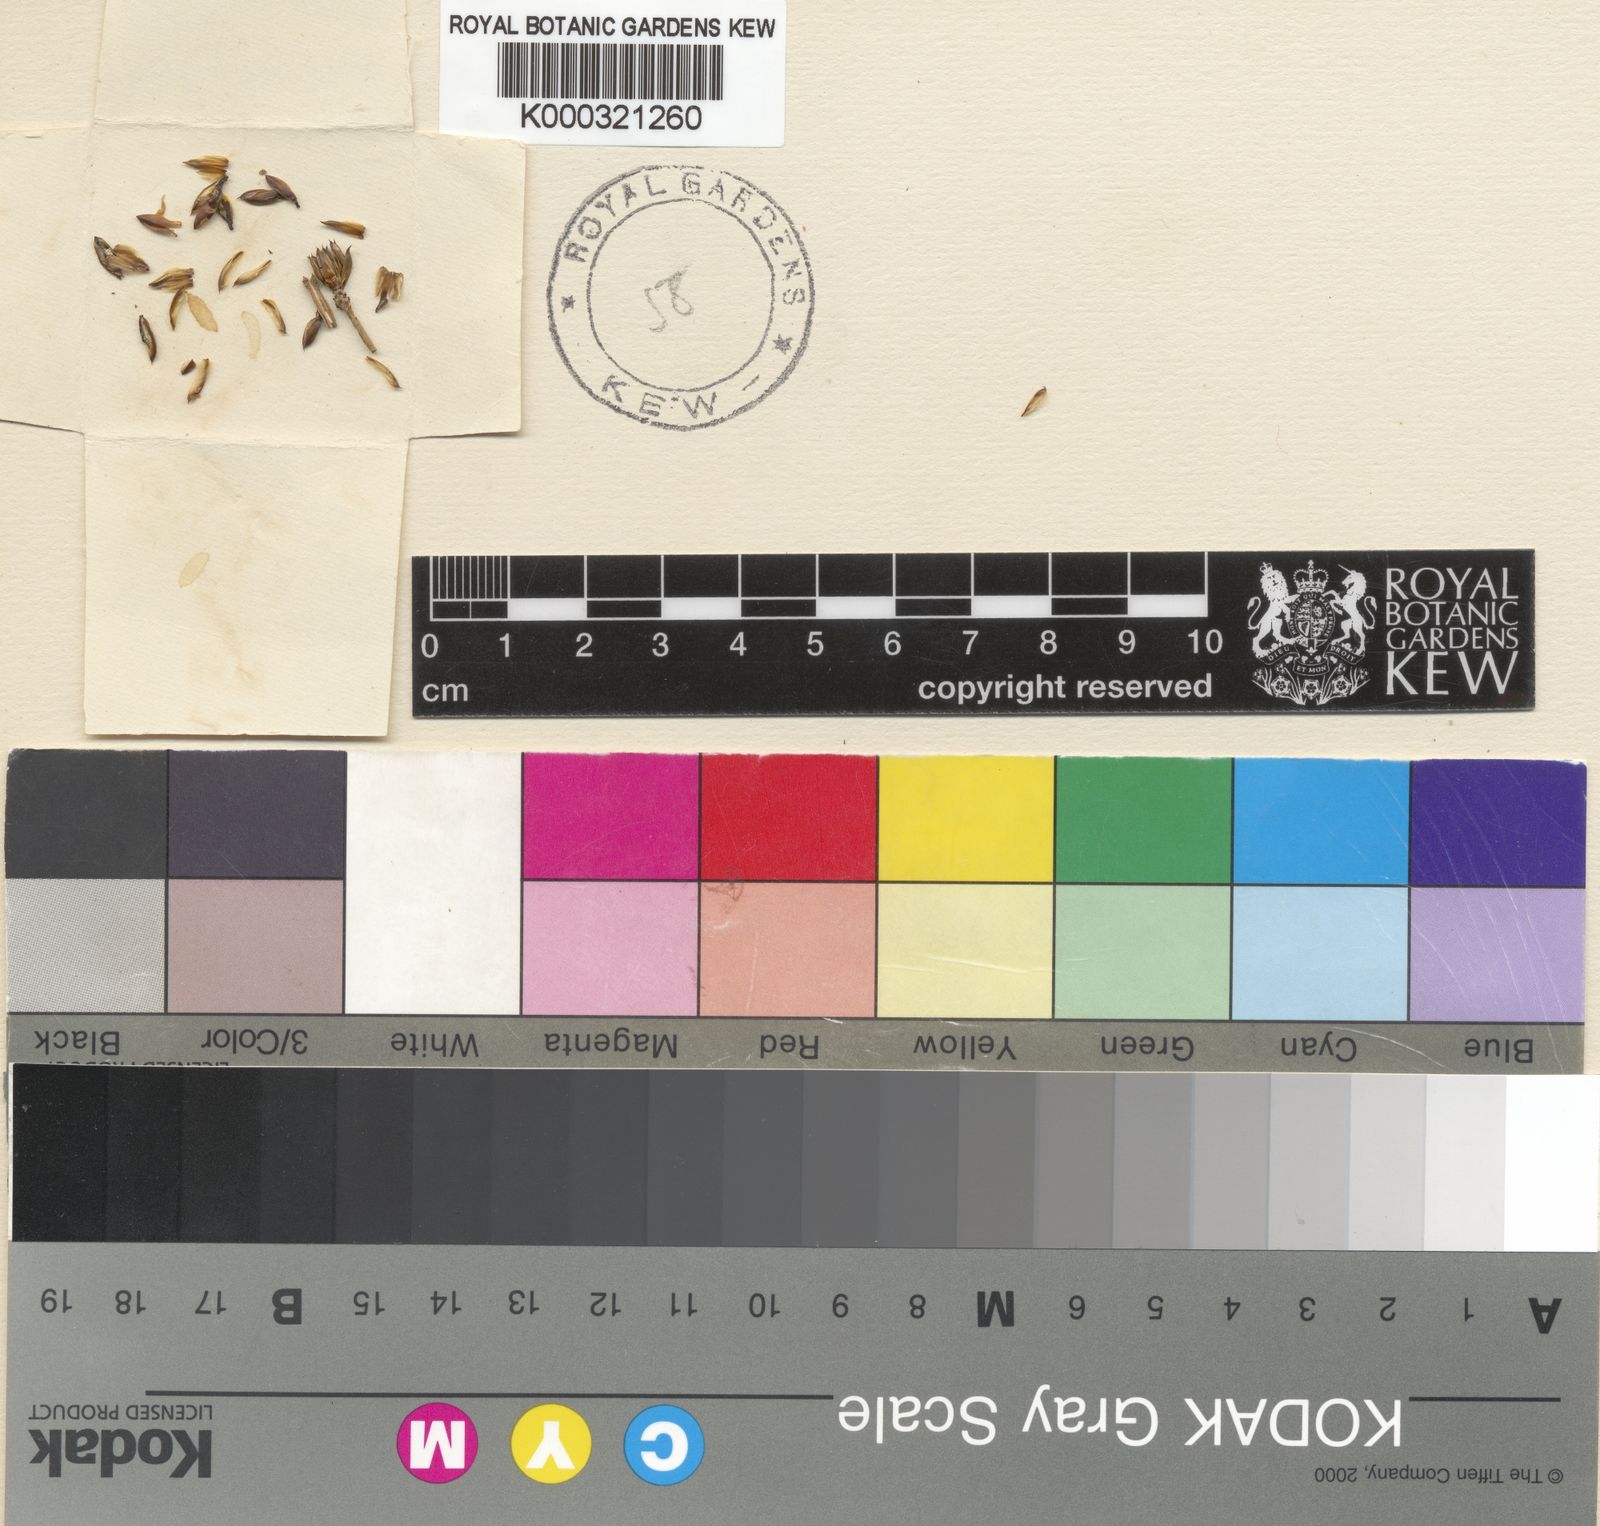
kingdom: Plantae
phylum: Tracheophyta
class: Liliopsida
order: Poales
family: Xyridaceae
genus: Xyris
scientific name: Xyris rehmannii
